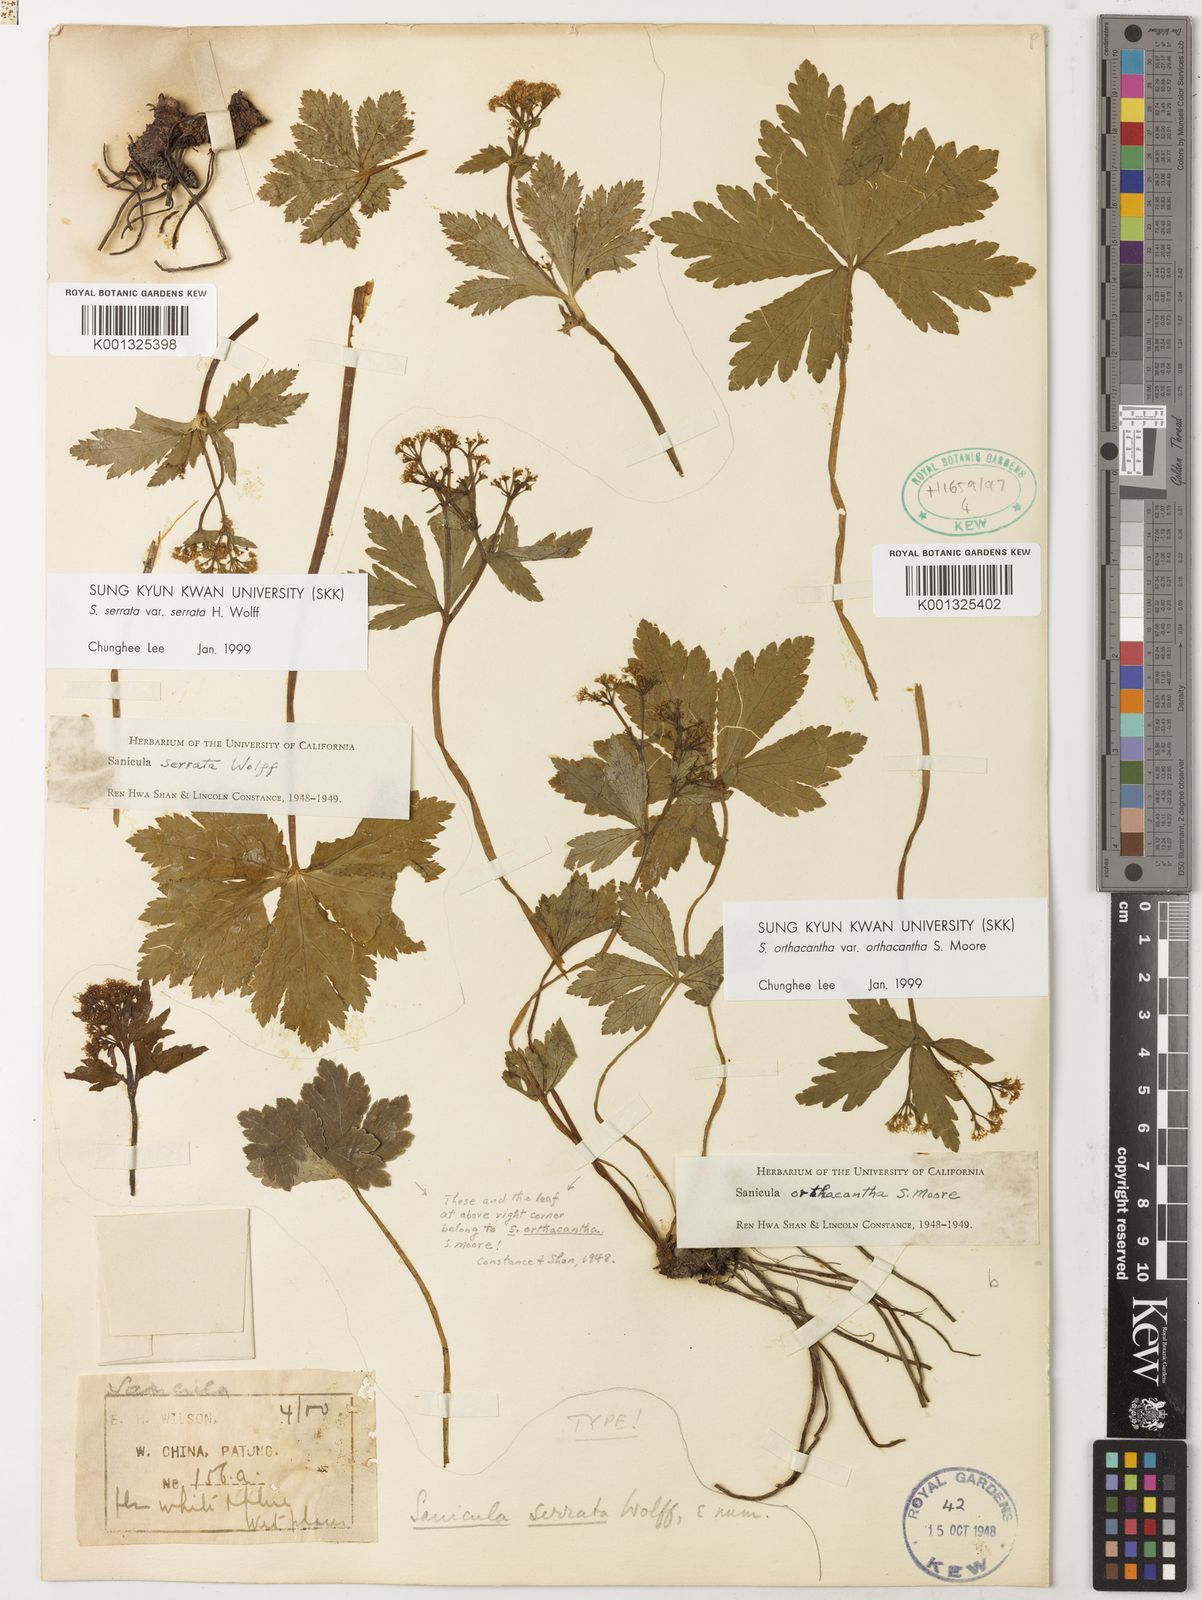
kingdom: Plantae
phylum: Tracheophyta
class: Magnoliopsida
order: Apiales
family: Apiaceae
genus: Sanicula
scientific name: Sanicula orthacantha
